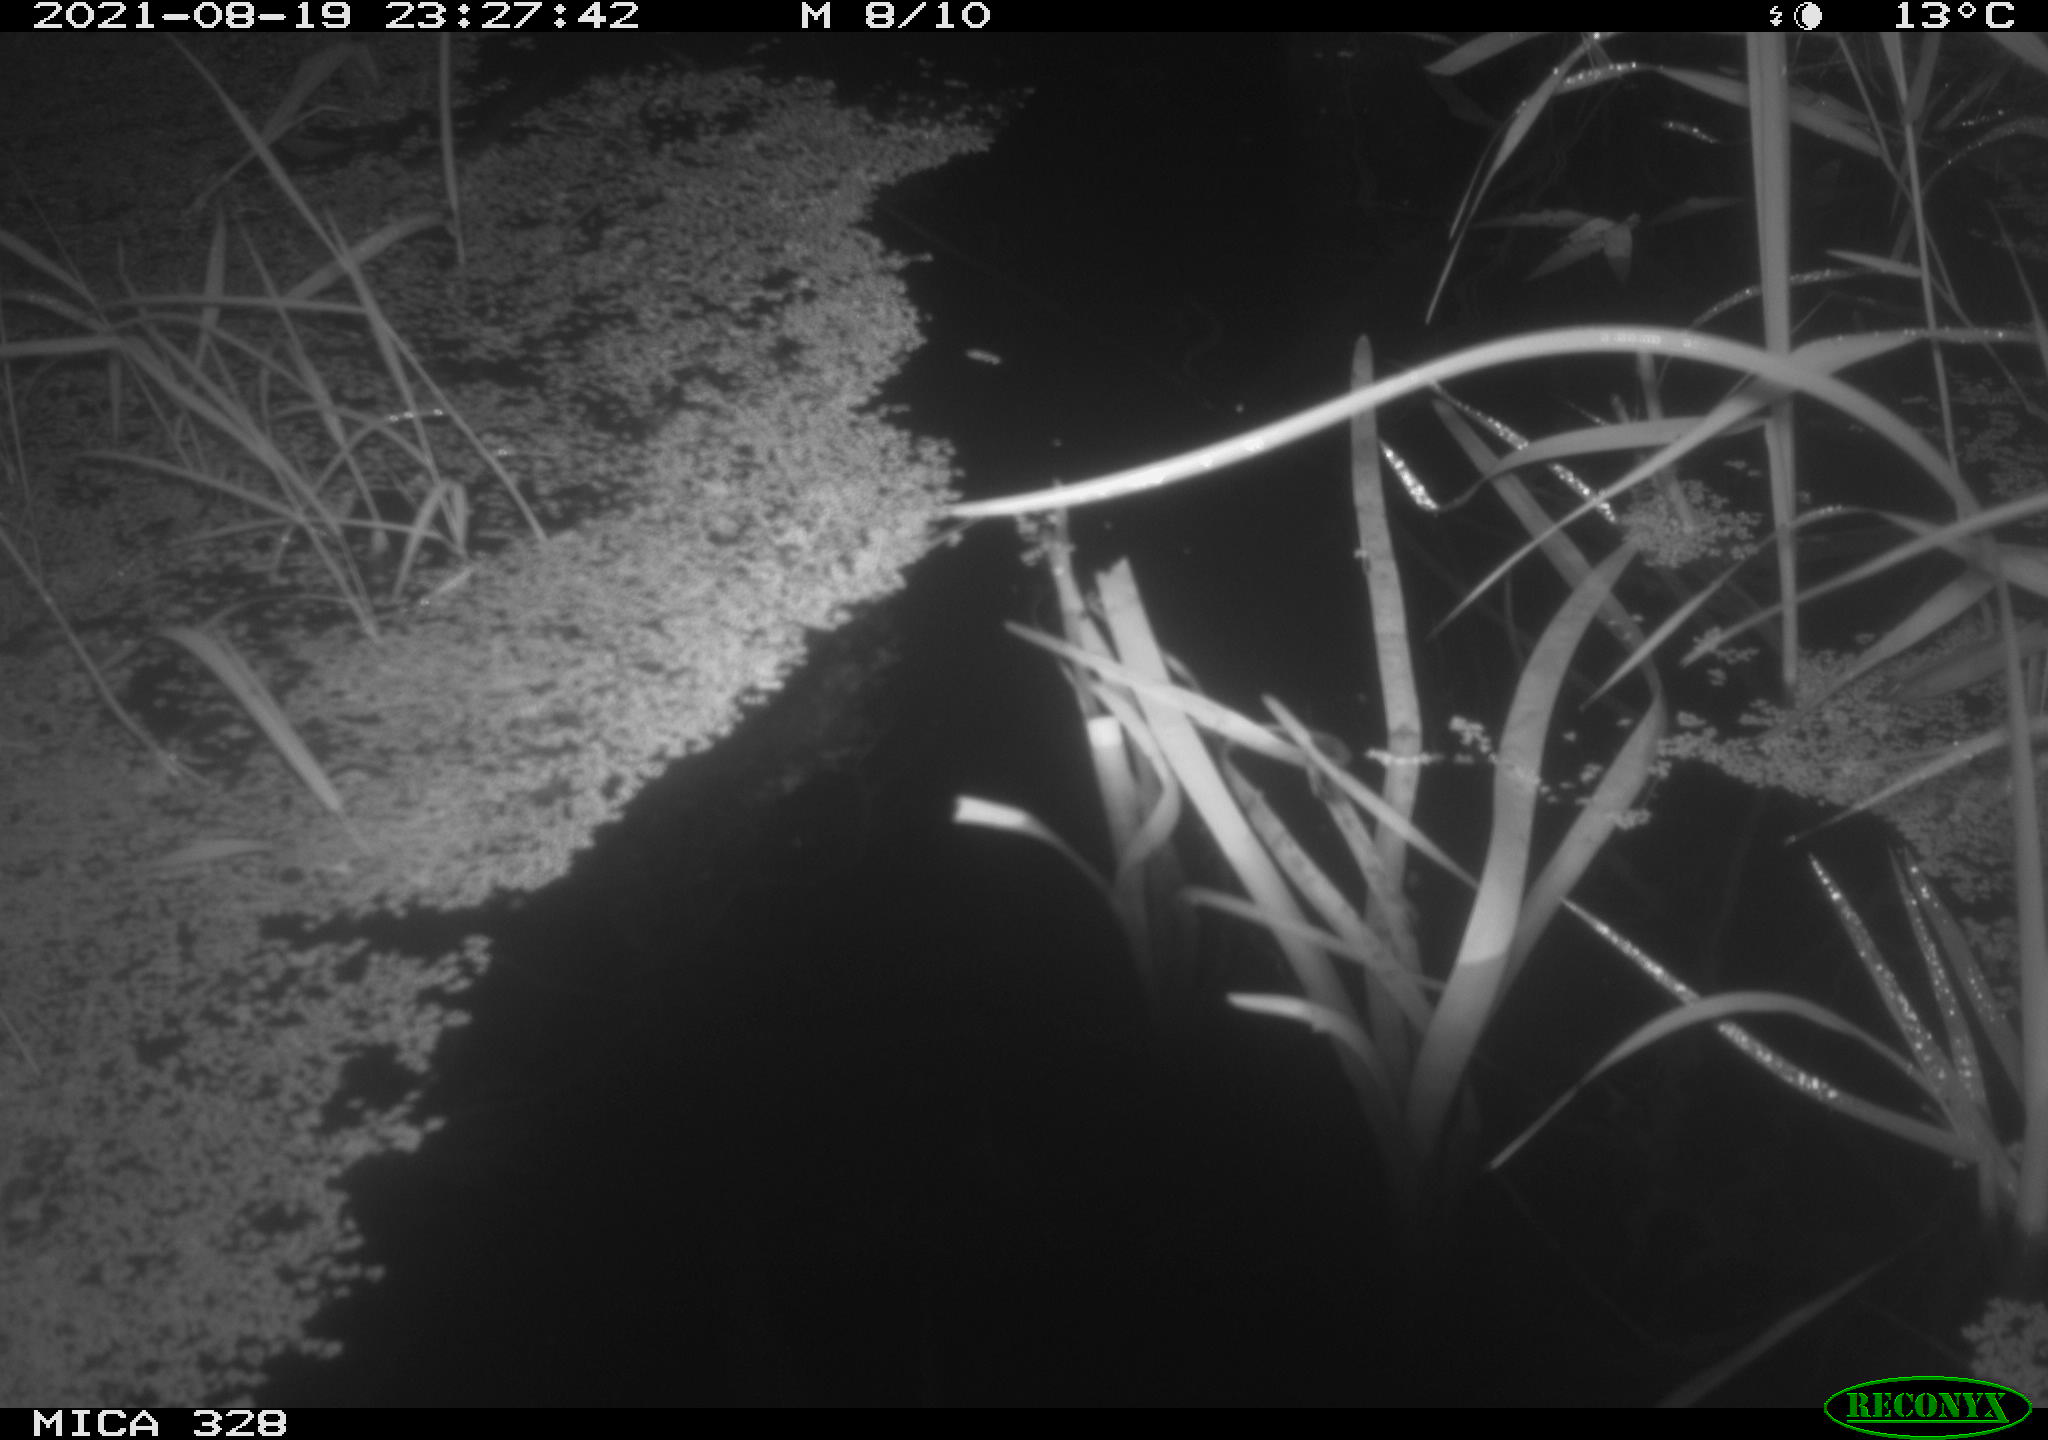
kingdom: Animalia
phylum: Chordata
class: Mammalia
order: Rodentia
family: Muridae
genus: Rattus
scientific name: Rattus norvegicus
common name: Brown rat
